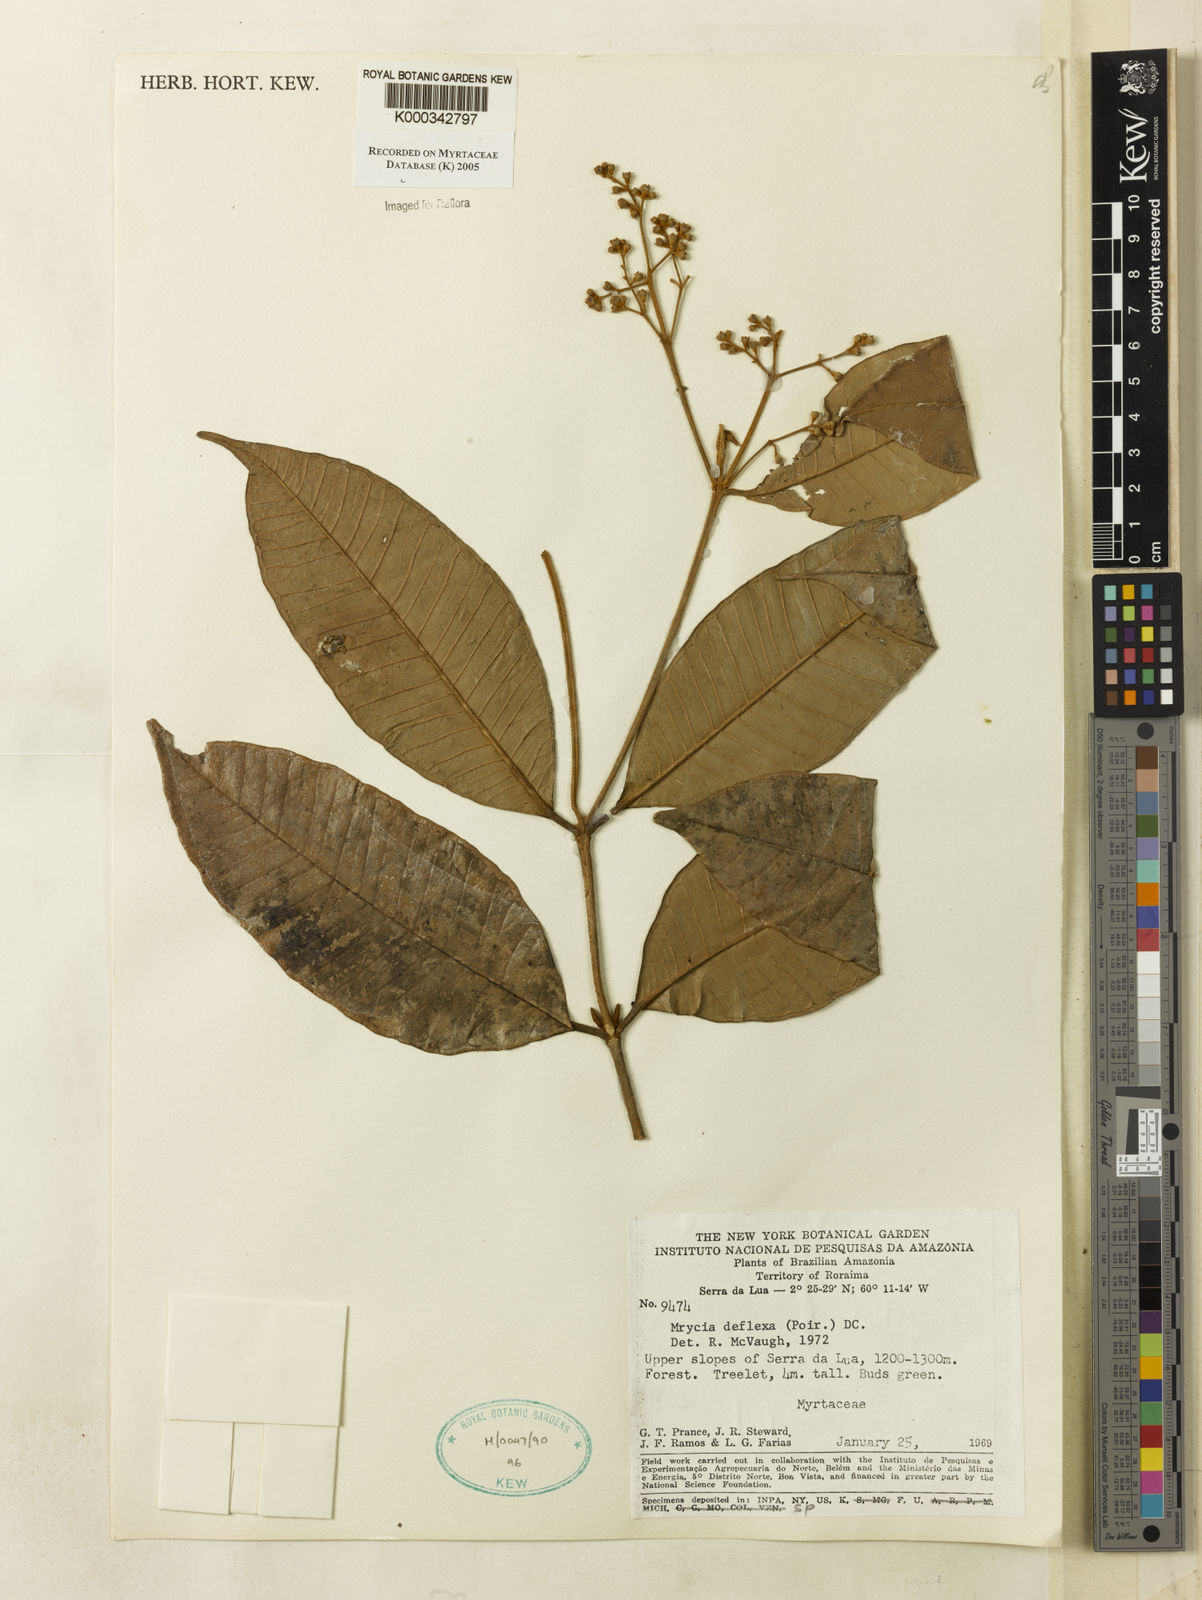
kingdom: Plantae
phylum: Tracheophyta
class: Magnoliopsida
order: Myrtales
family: Myrtaceae
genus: Myrcia
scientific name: Myrcia deflexa
